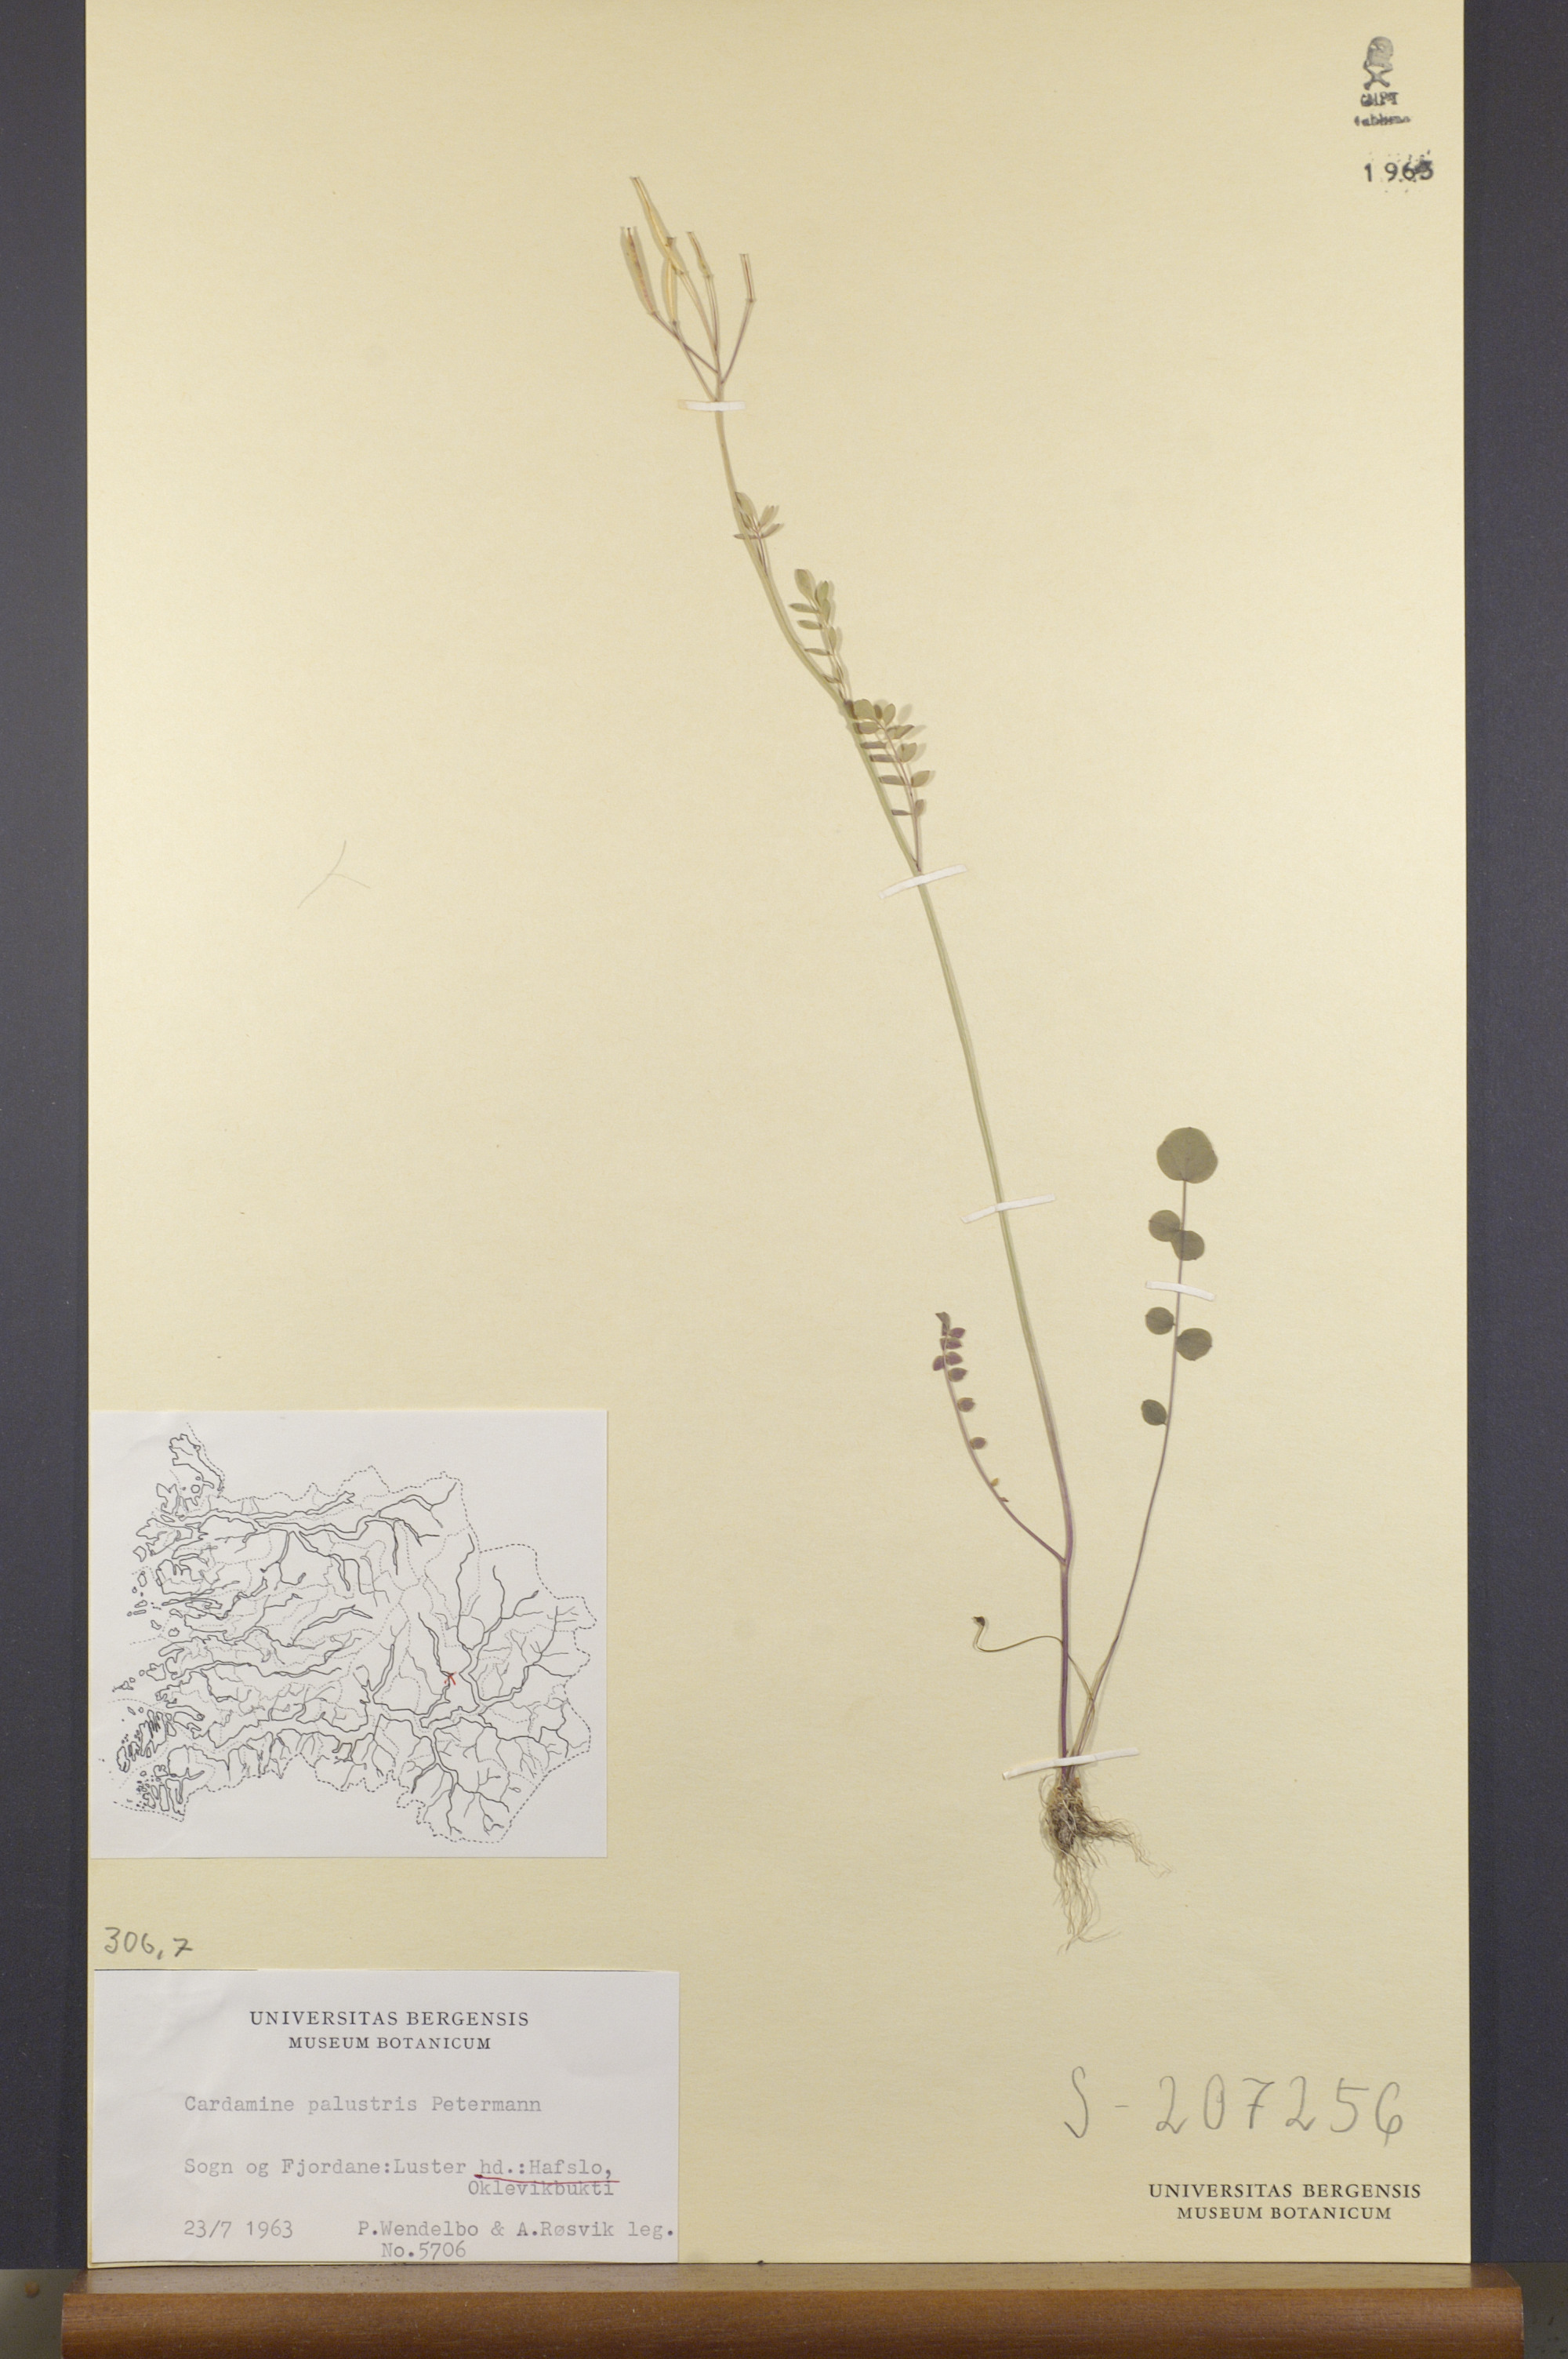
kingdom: Plantae
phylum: Tracheophyta
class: Magnoliopsida
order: Brassicales
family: Brassicaceae
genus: Cardamine
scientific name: Cardamine dentata
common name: Toothed bittercress
